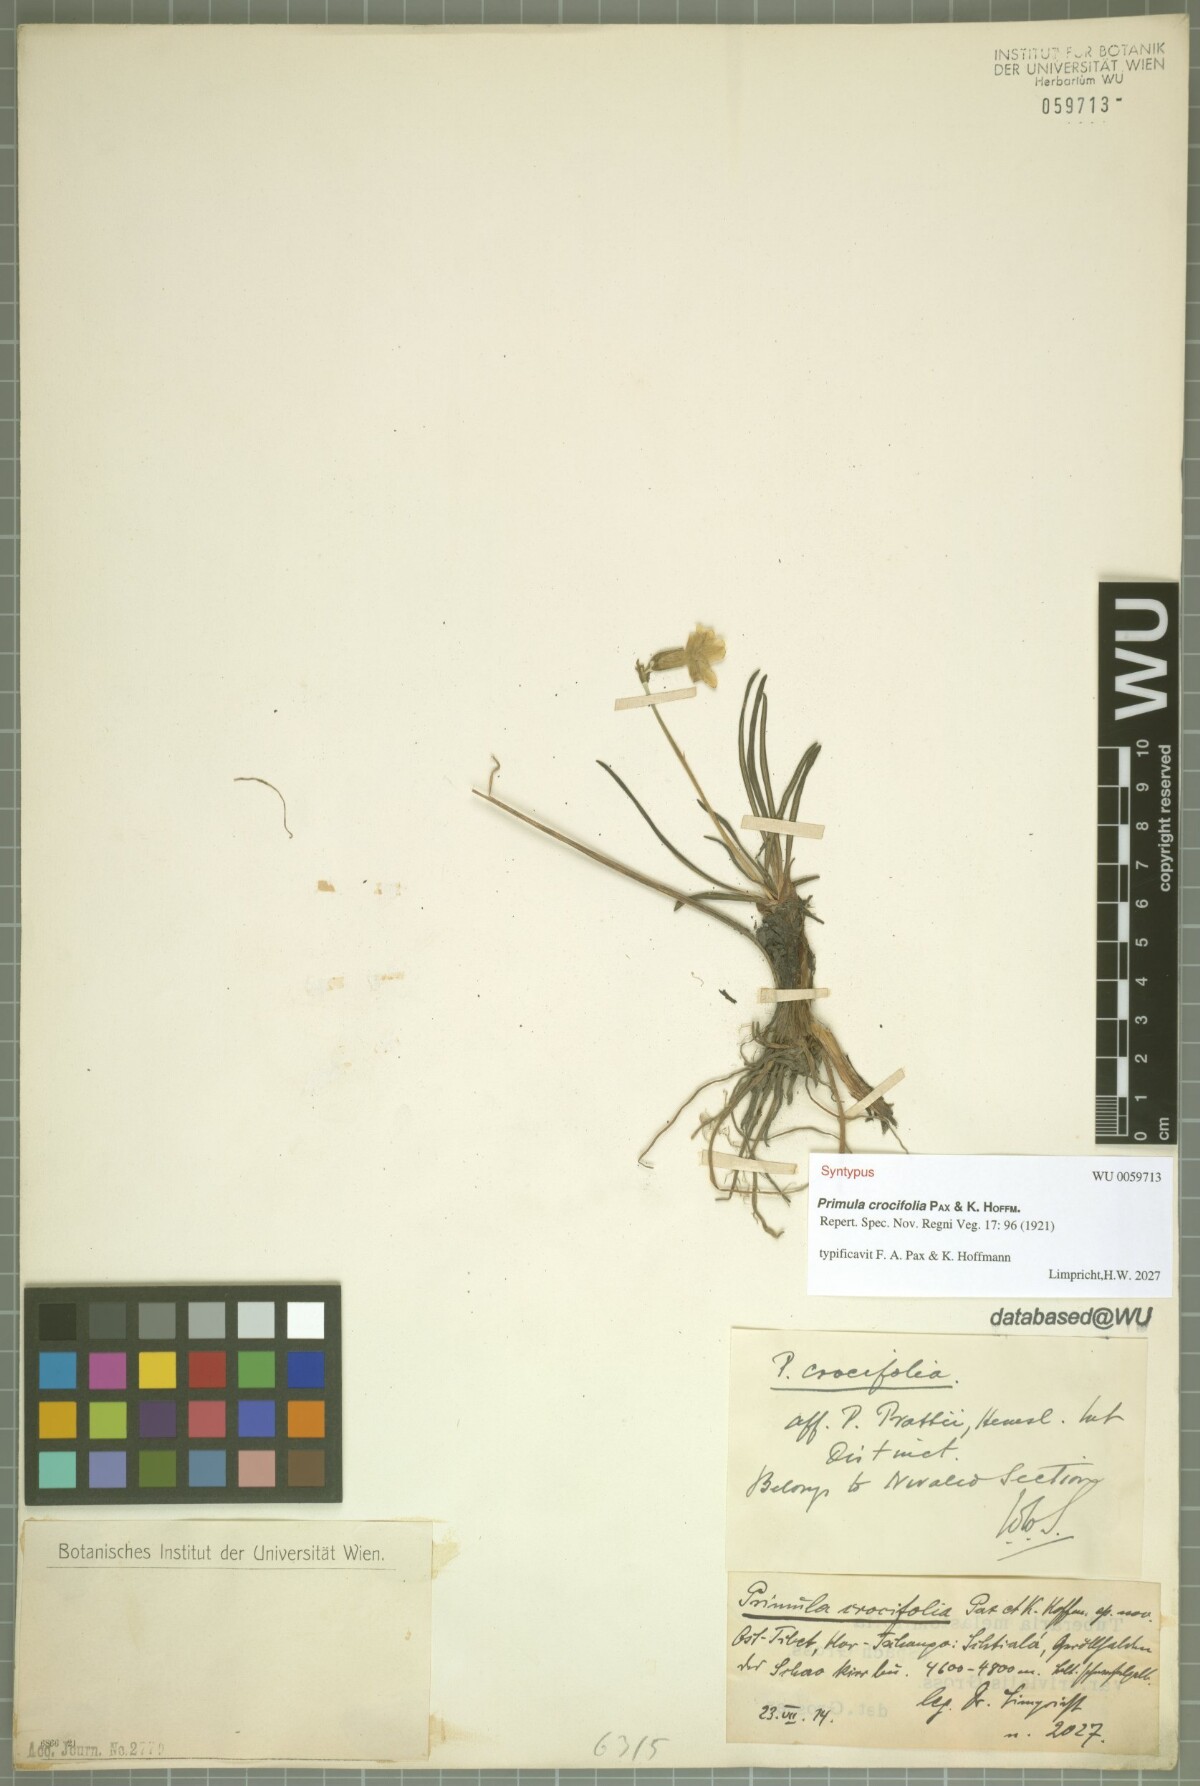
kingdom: Plantae
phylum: Tracheophyta
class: Magnoliopsida
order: Ericales
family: Primulaceae
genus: Primula
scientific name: Primula crocifolia
